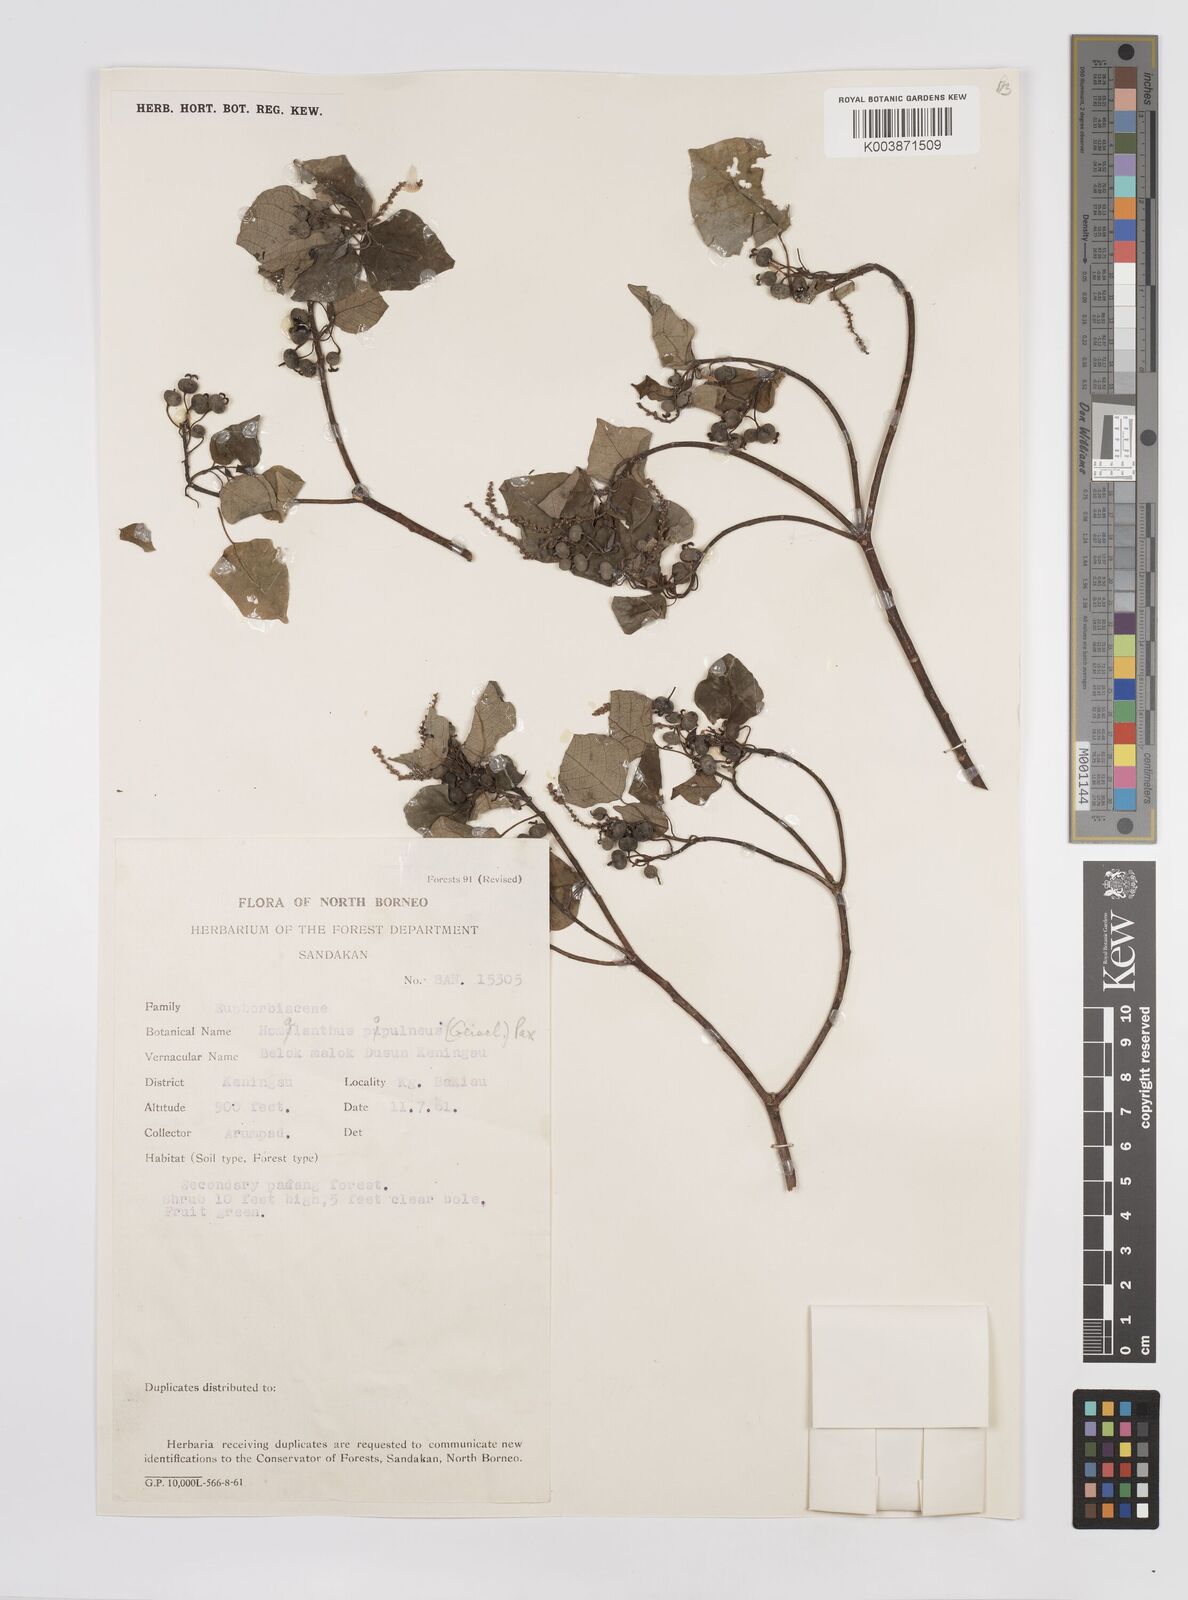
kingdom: Plantae
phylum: Tracheophyta
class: Magnoliopsida
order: Malpighiales
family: Euphorbiaceae
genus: Homalanthus
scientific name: Homalanthus populneus
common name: Spurge
